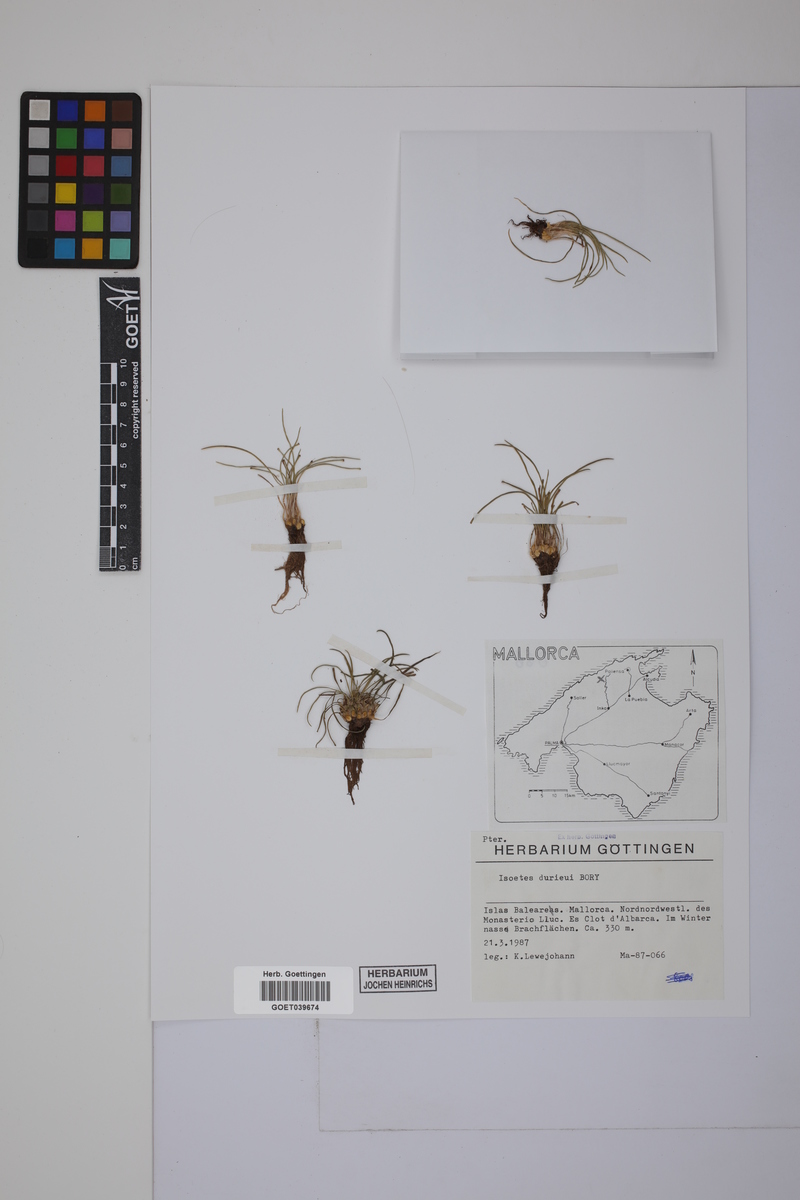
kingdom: Plantae
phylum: Tracheophyta
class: Lycopodiopsida
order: Isoetales
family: Isoetaceae
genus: Isoetes
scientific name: Isoetes duriei
